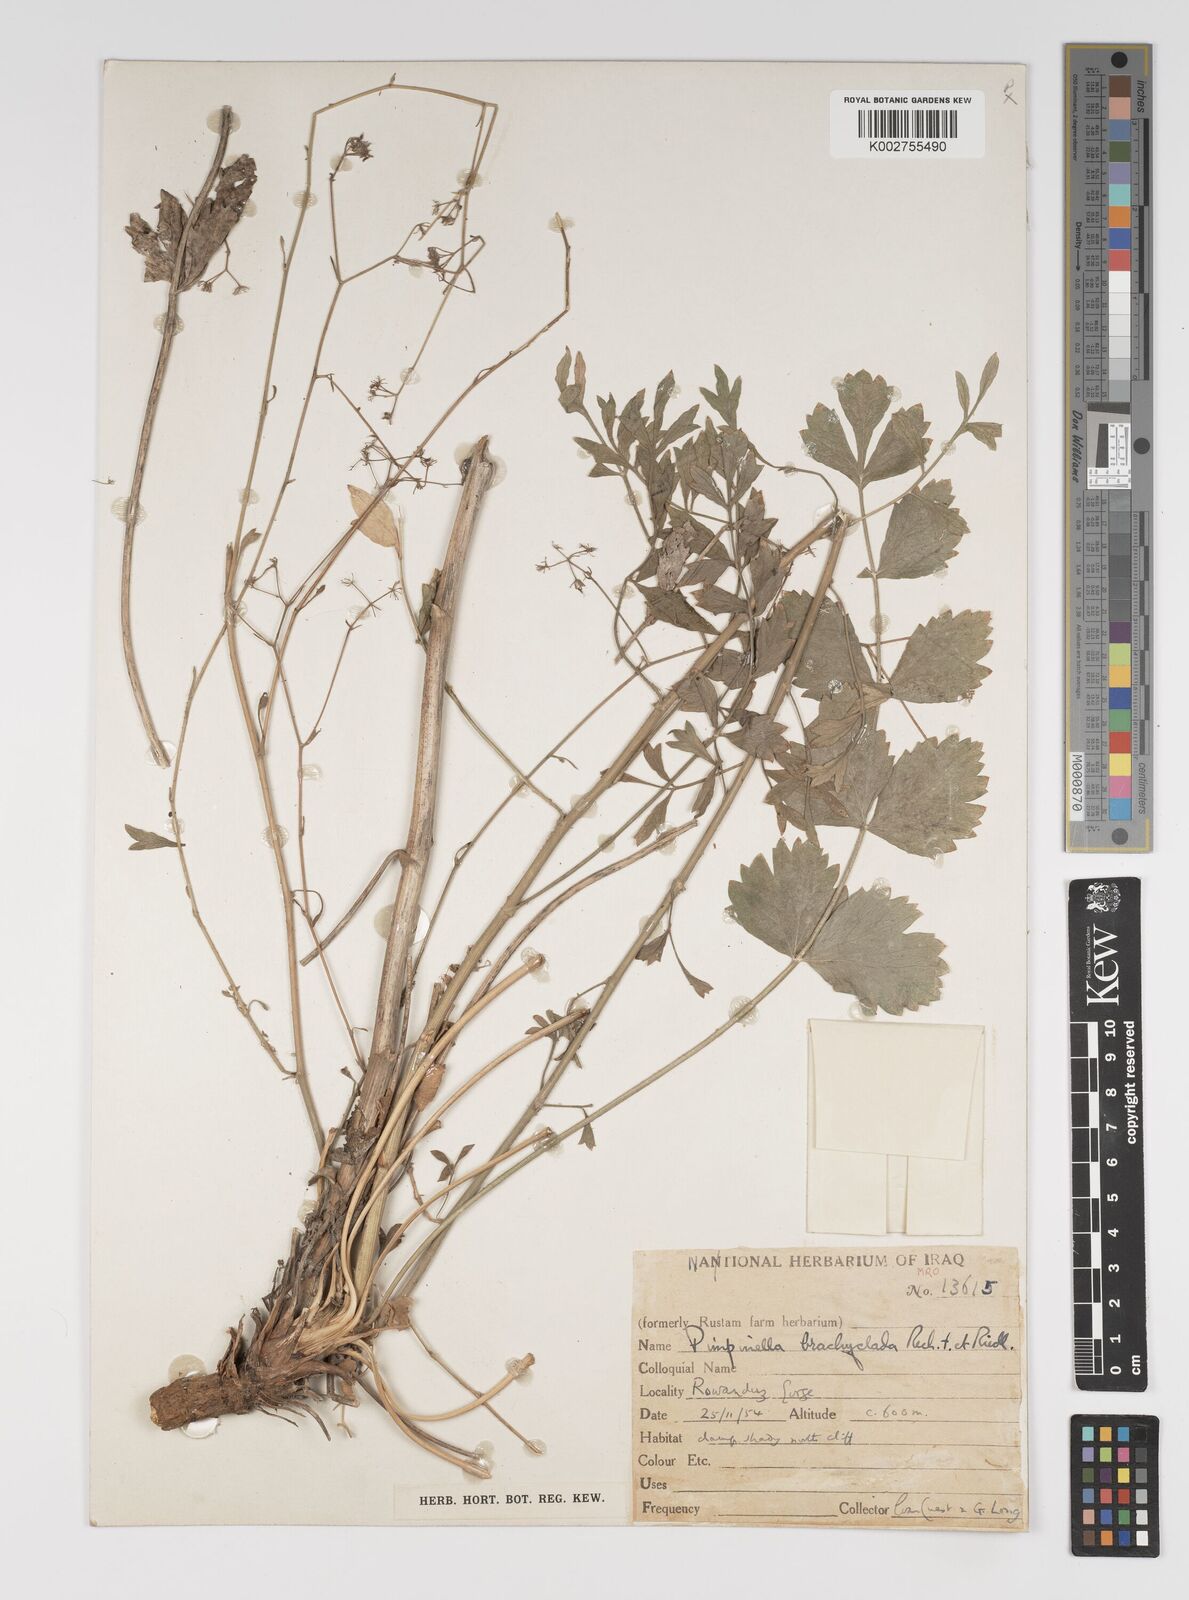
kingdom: Plantae
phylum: Tracheophyta
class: Magnoliopsida
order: Apiales
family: Apiaceae
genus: Pimpinella
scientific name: Pimpinella brachyclada
